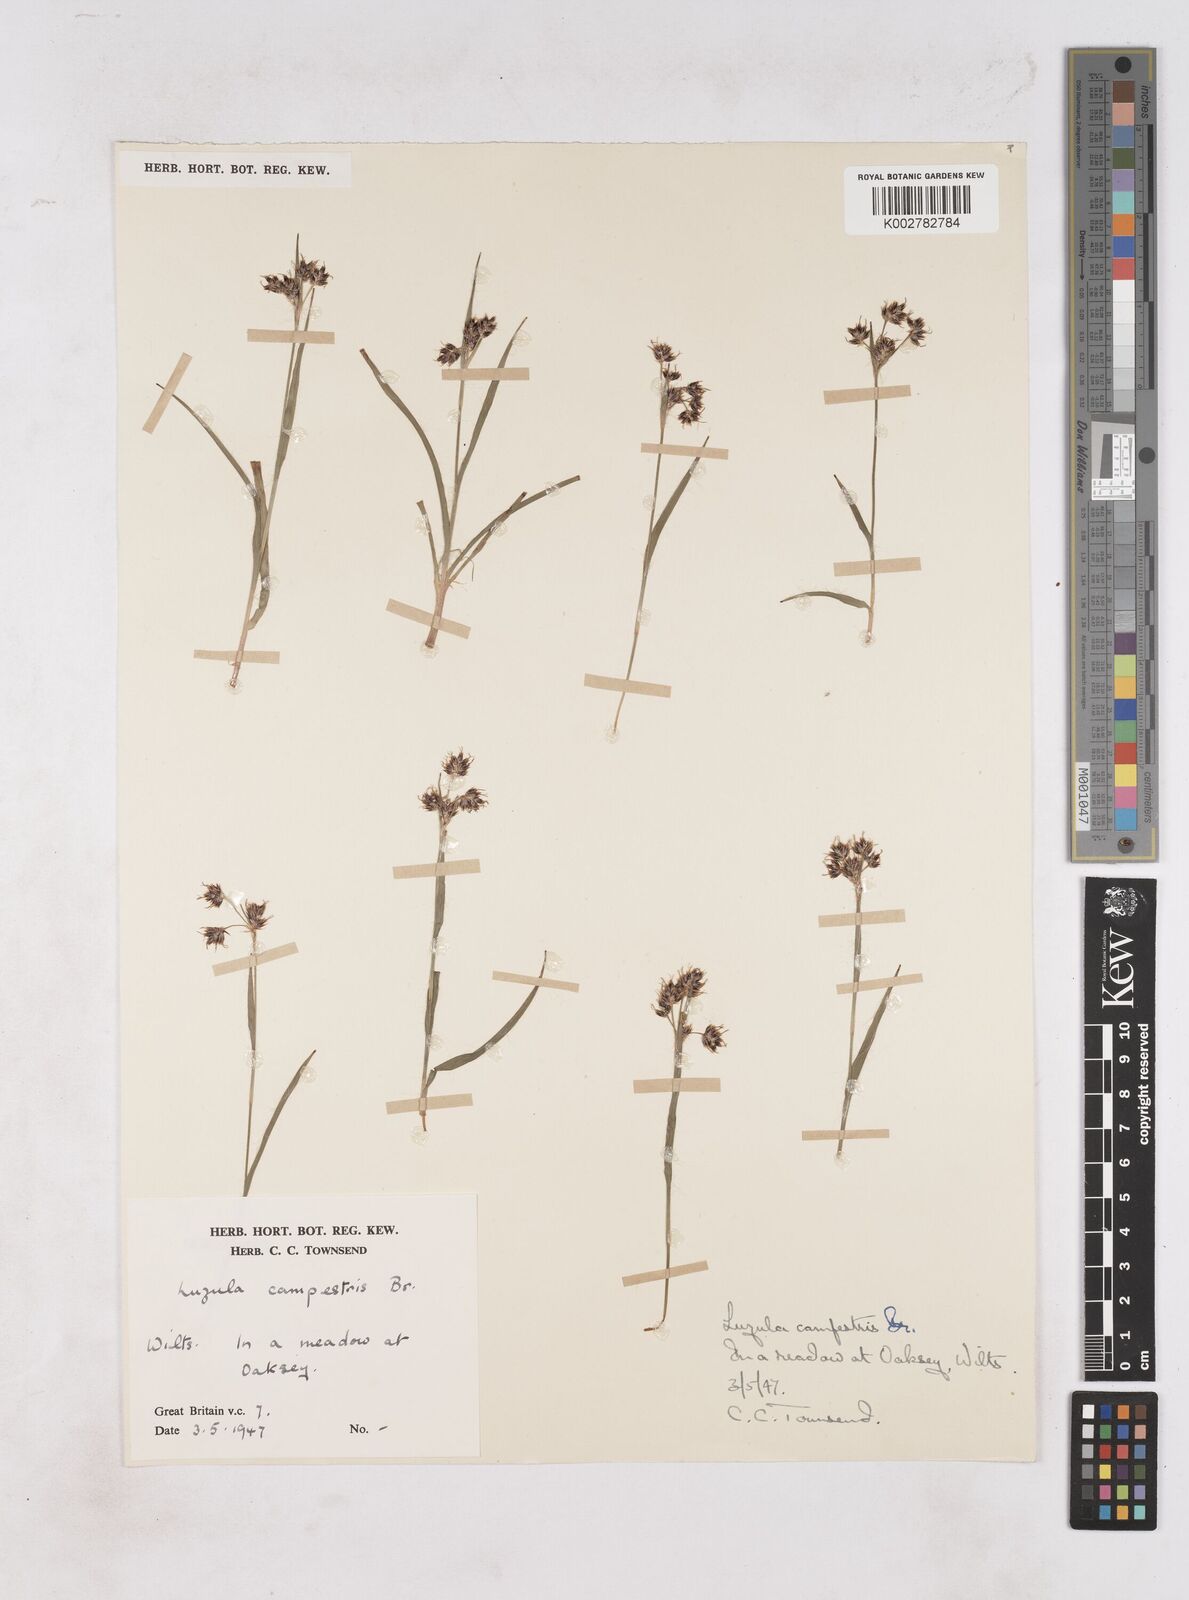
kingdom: Plantae
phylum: Tracheophyta
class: Liliopsida
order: Poales
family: Juncaceae
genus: Luzula
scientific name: Luzula campestris
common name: Field wood-rush
